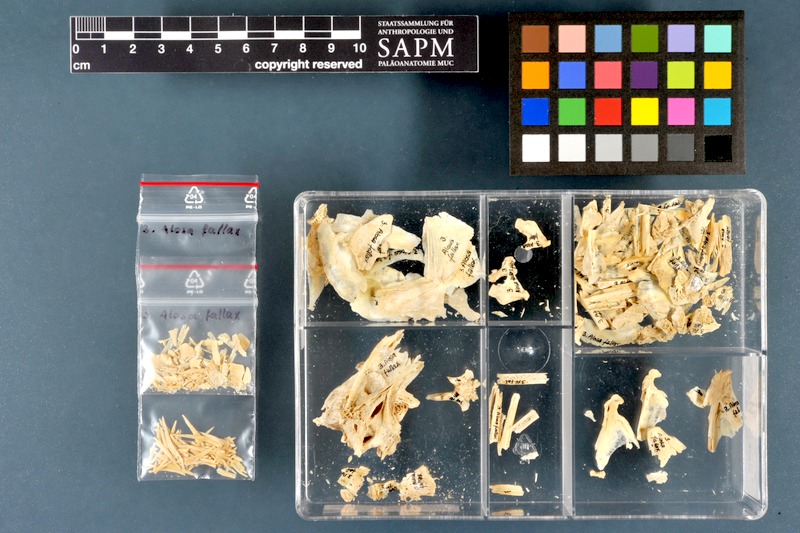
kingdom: Animalia
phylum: Chordata
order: Clupeiformes
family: Clupeidae
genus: Alosa
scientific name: Alosa fallax
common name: Twaite shad
